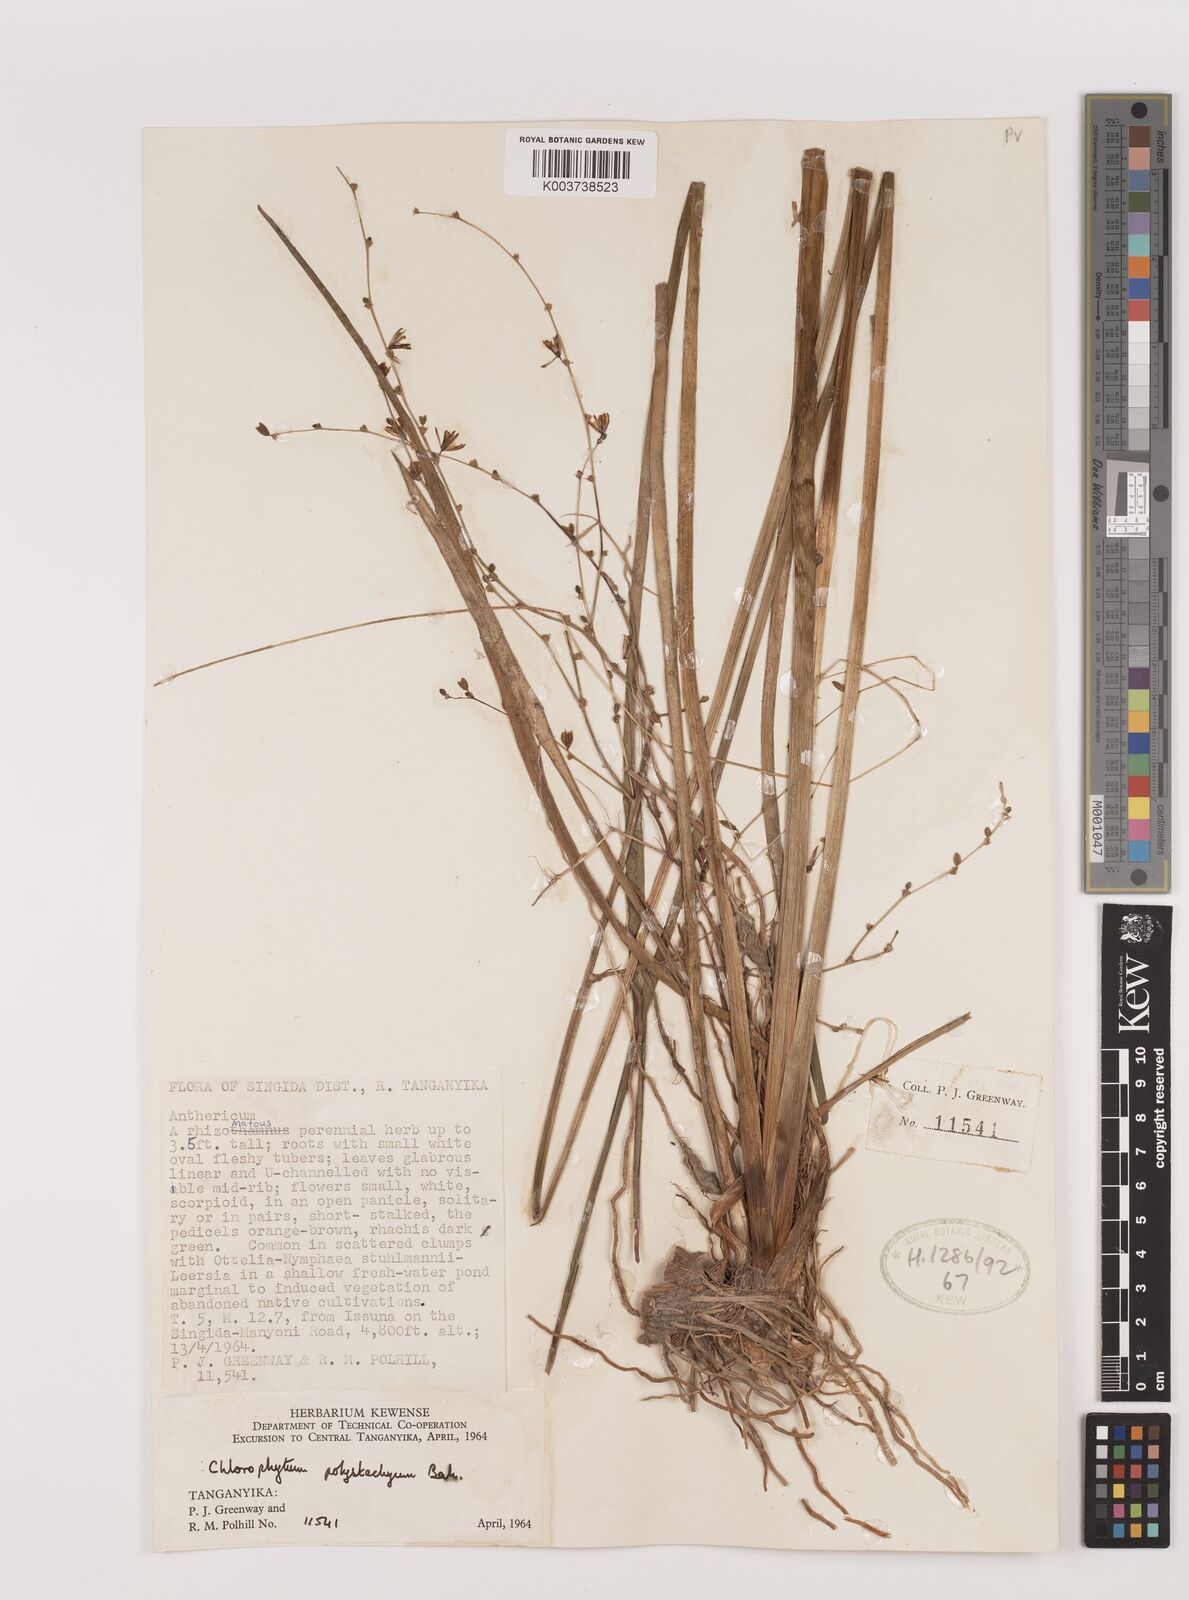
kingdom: Plantae
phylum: Tracheophyta
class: Liliopsida
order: Asparagales
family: Asparagaceae
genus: Chlorophytum
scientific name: Chlorophytum polystachys
